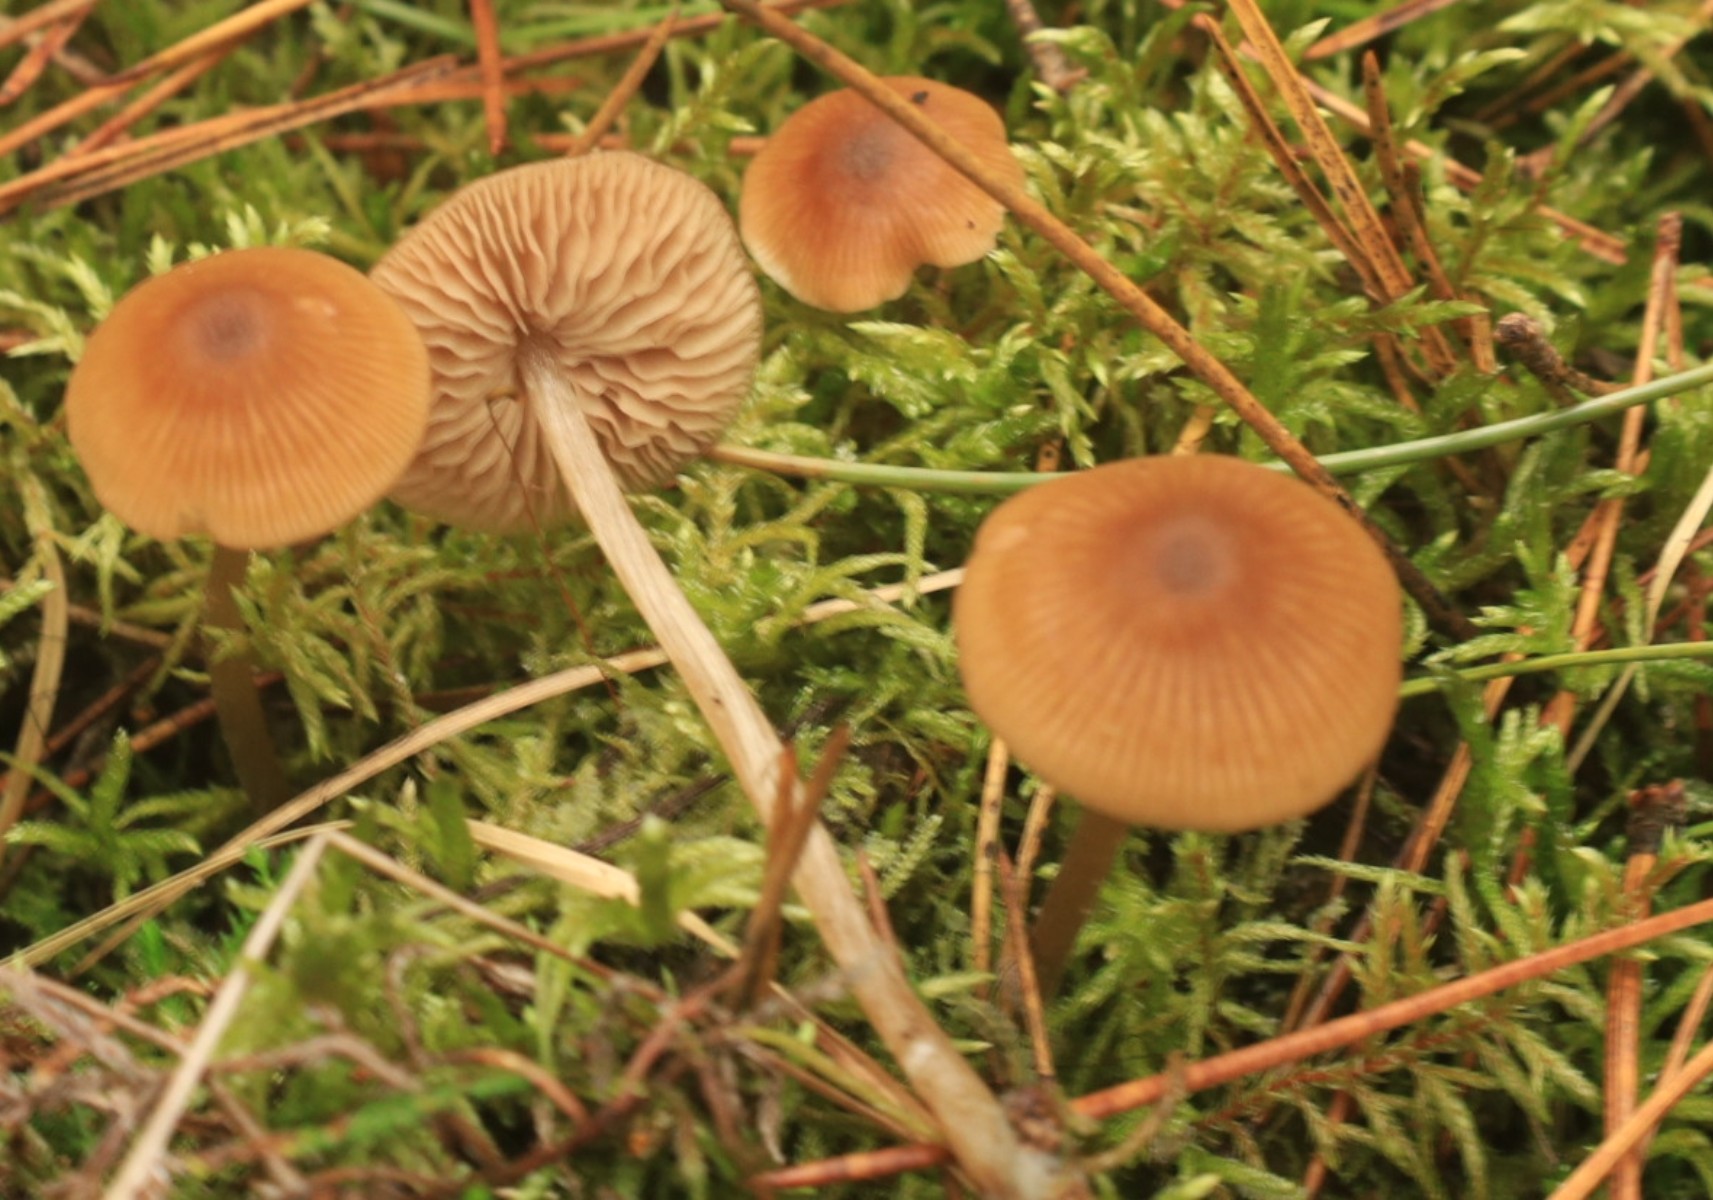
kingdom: Fungi
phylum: Basidiomycota
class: Agaricomycetes
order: Agaricales
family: Entolomataceae
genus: Entoloma
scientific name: Entoloma cetratum
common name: voks-rødblad
